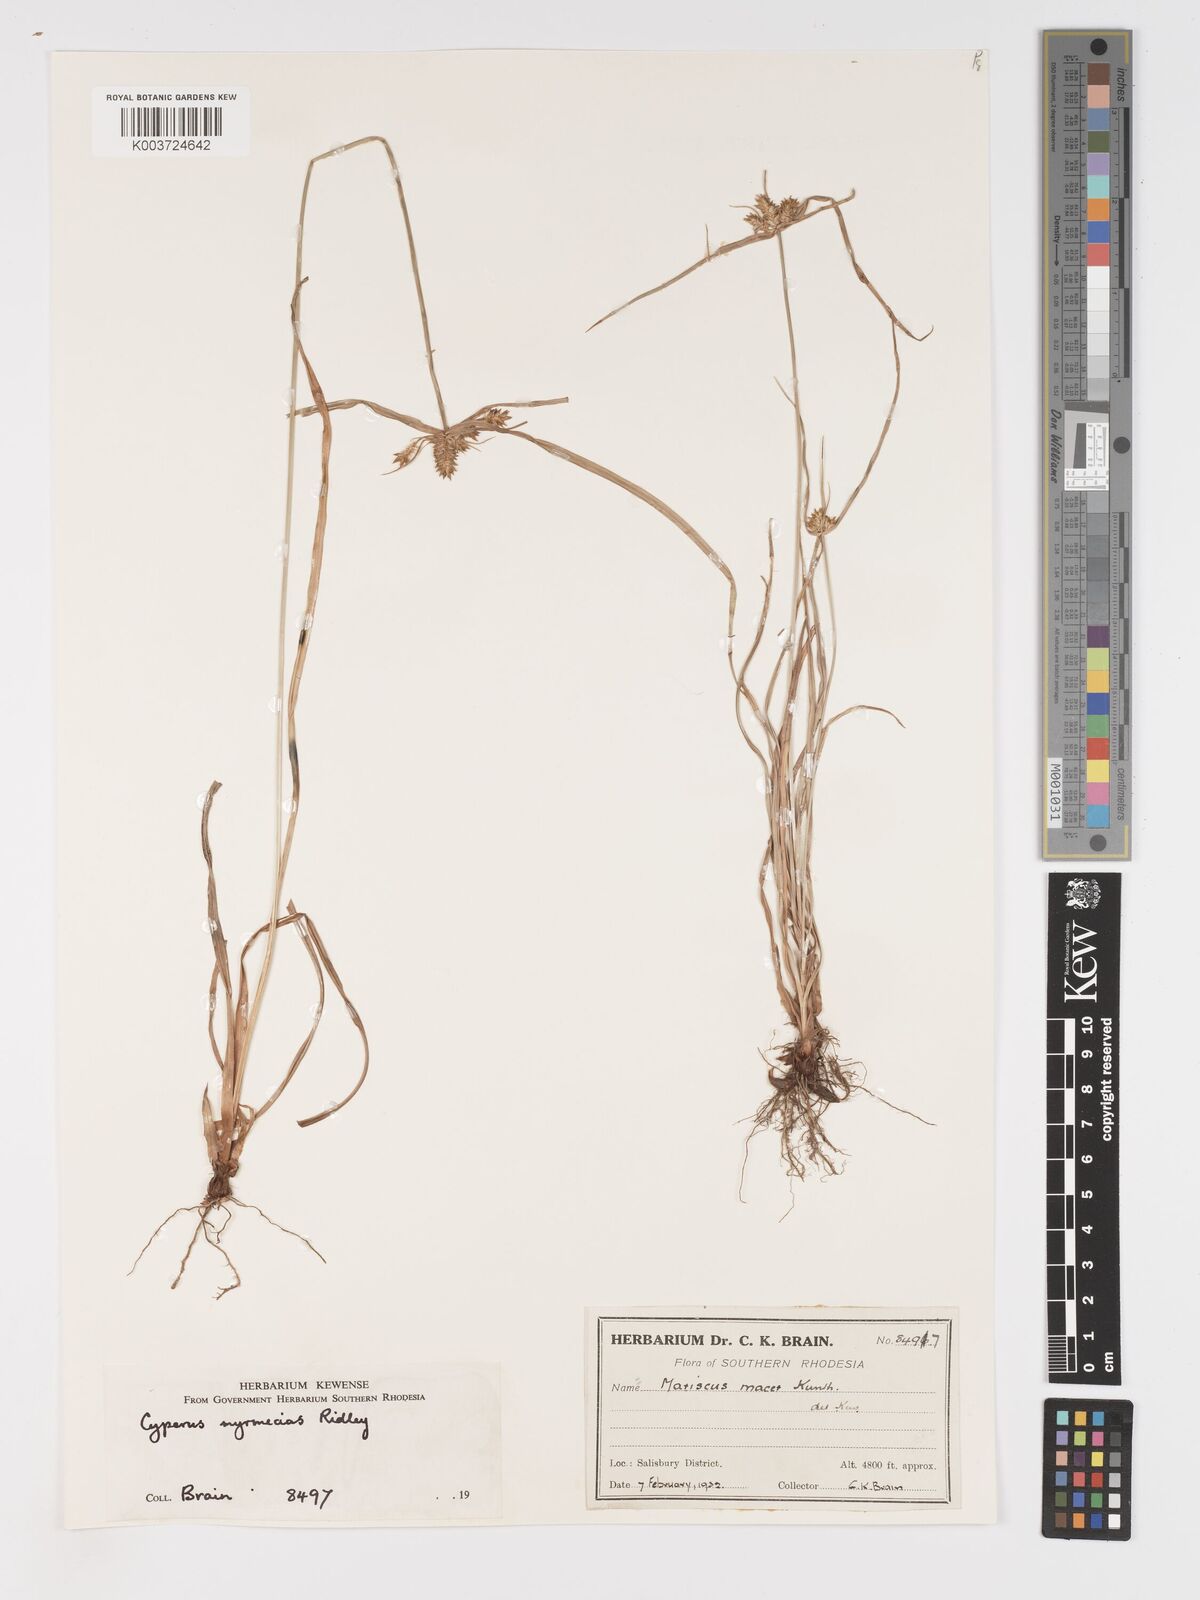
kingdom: Plantae
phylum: Tracheophyta
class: Liliopsida
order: Poales
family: Cyperaceae
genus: Cyperus
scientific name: Cyperus myrmecias
